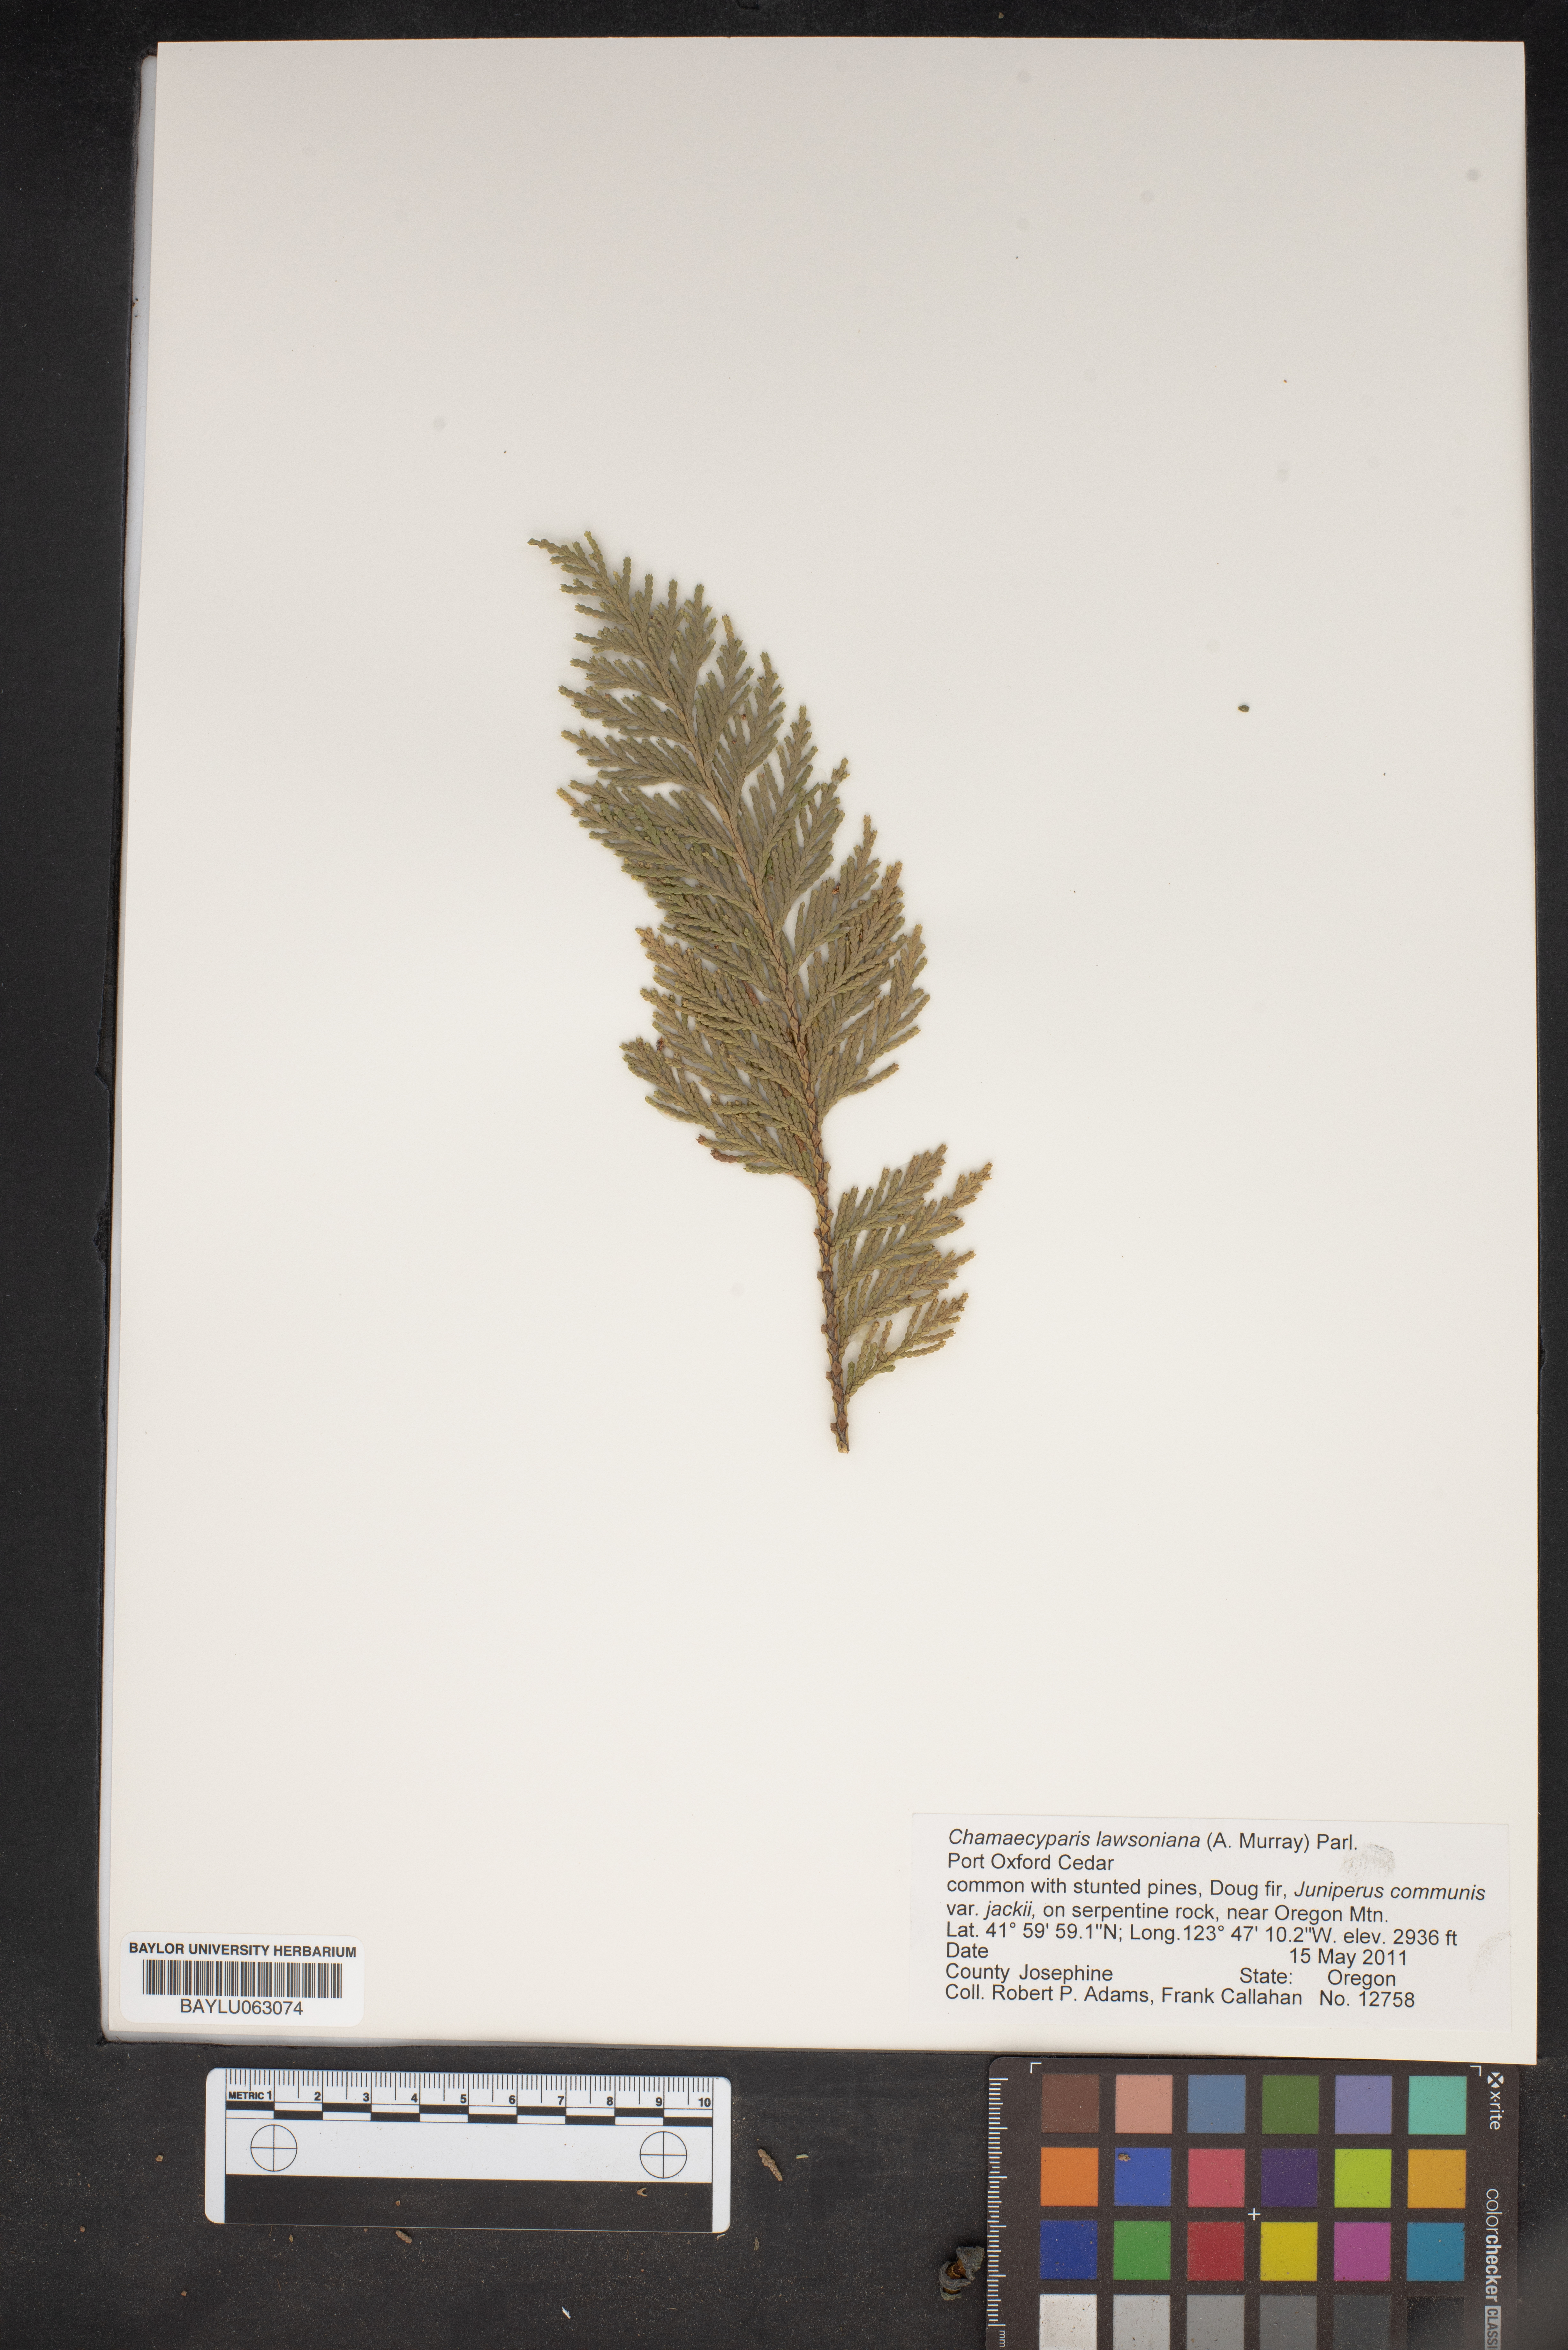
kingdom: Plantae
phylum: Tracheophyta
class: Pinopsida
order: Pinales
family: Cupressaceae
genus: Chamaecyparis
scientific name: Chamaecyparis lawsoniana
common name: Lawson's cypress
